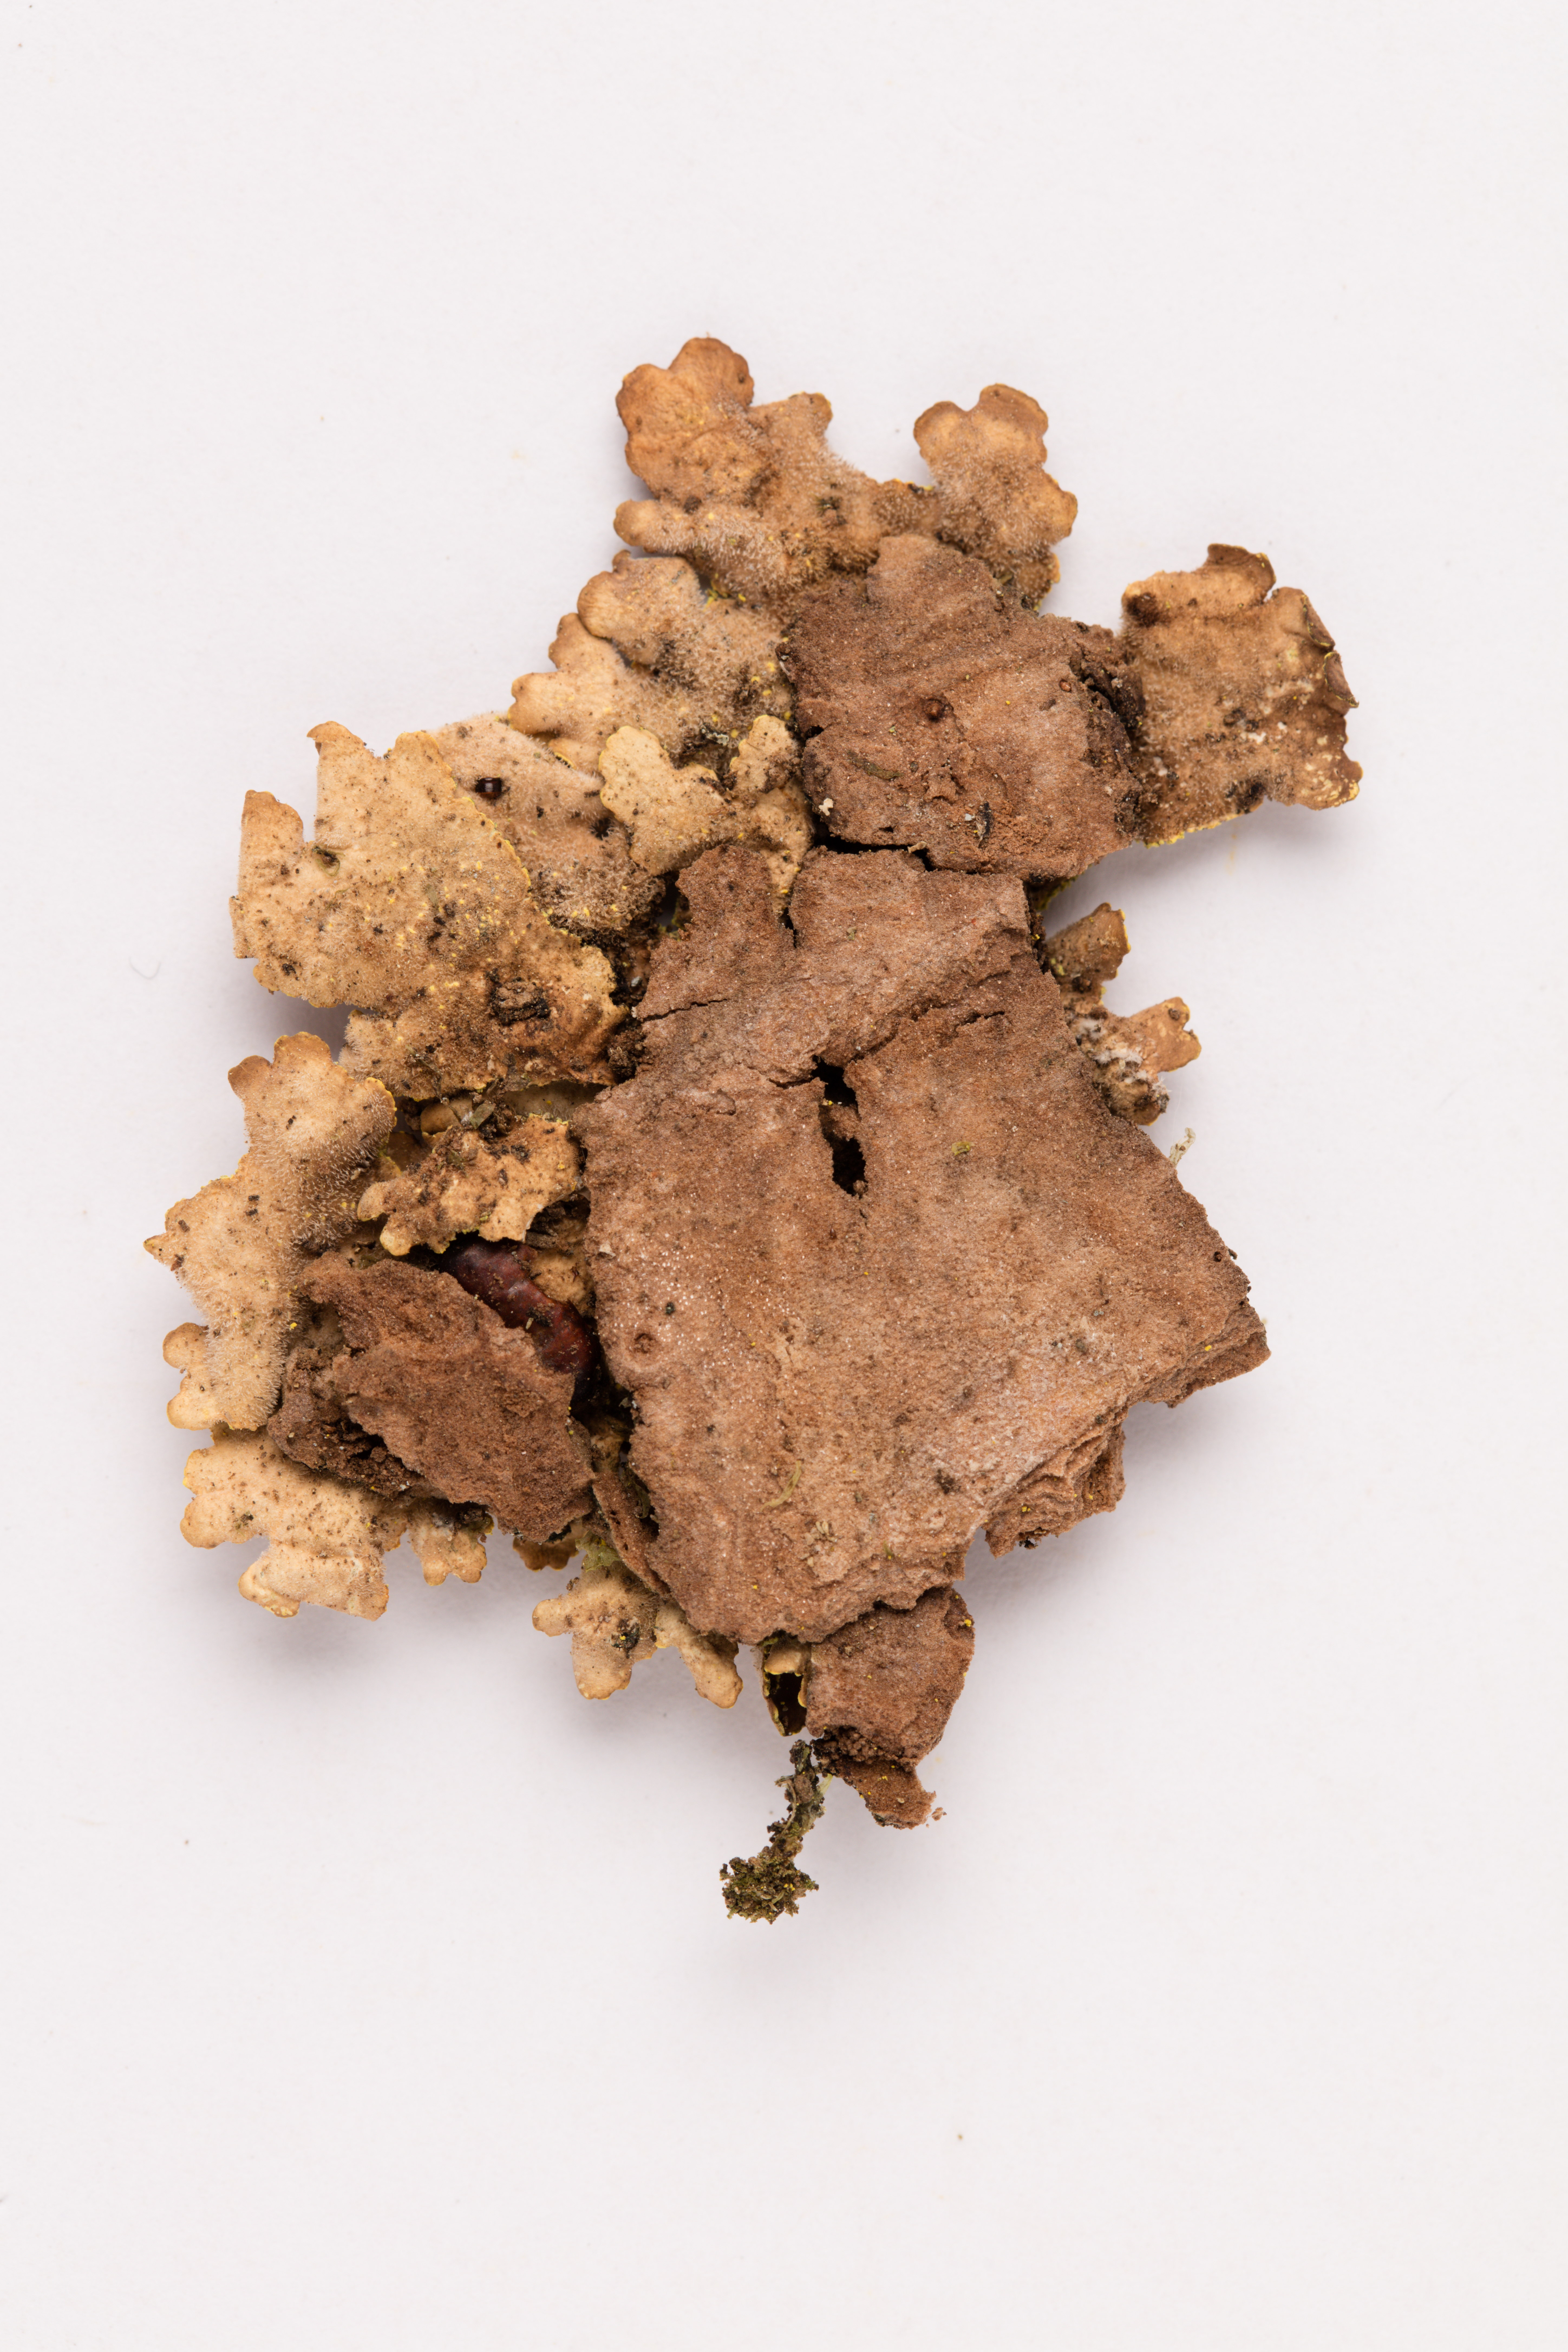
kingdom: Fungi
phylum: Ascomycota
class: Lecanoromycetes
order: Peltigerales
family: Lobariaceae
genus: Pseudocyphellaria
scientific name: Pseudocyphellaria crocata
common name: Golden specklebelly
